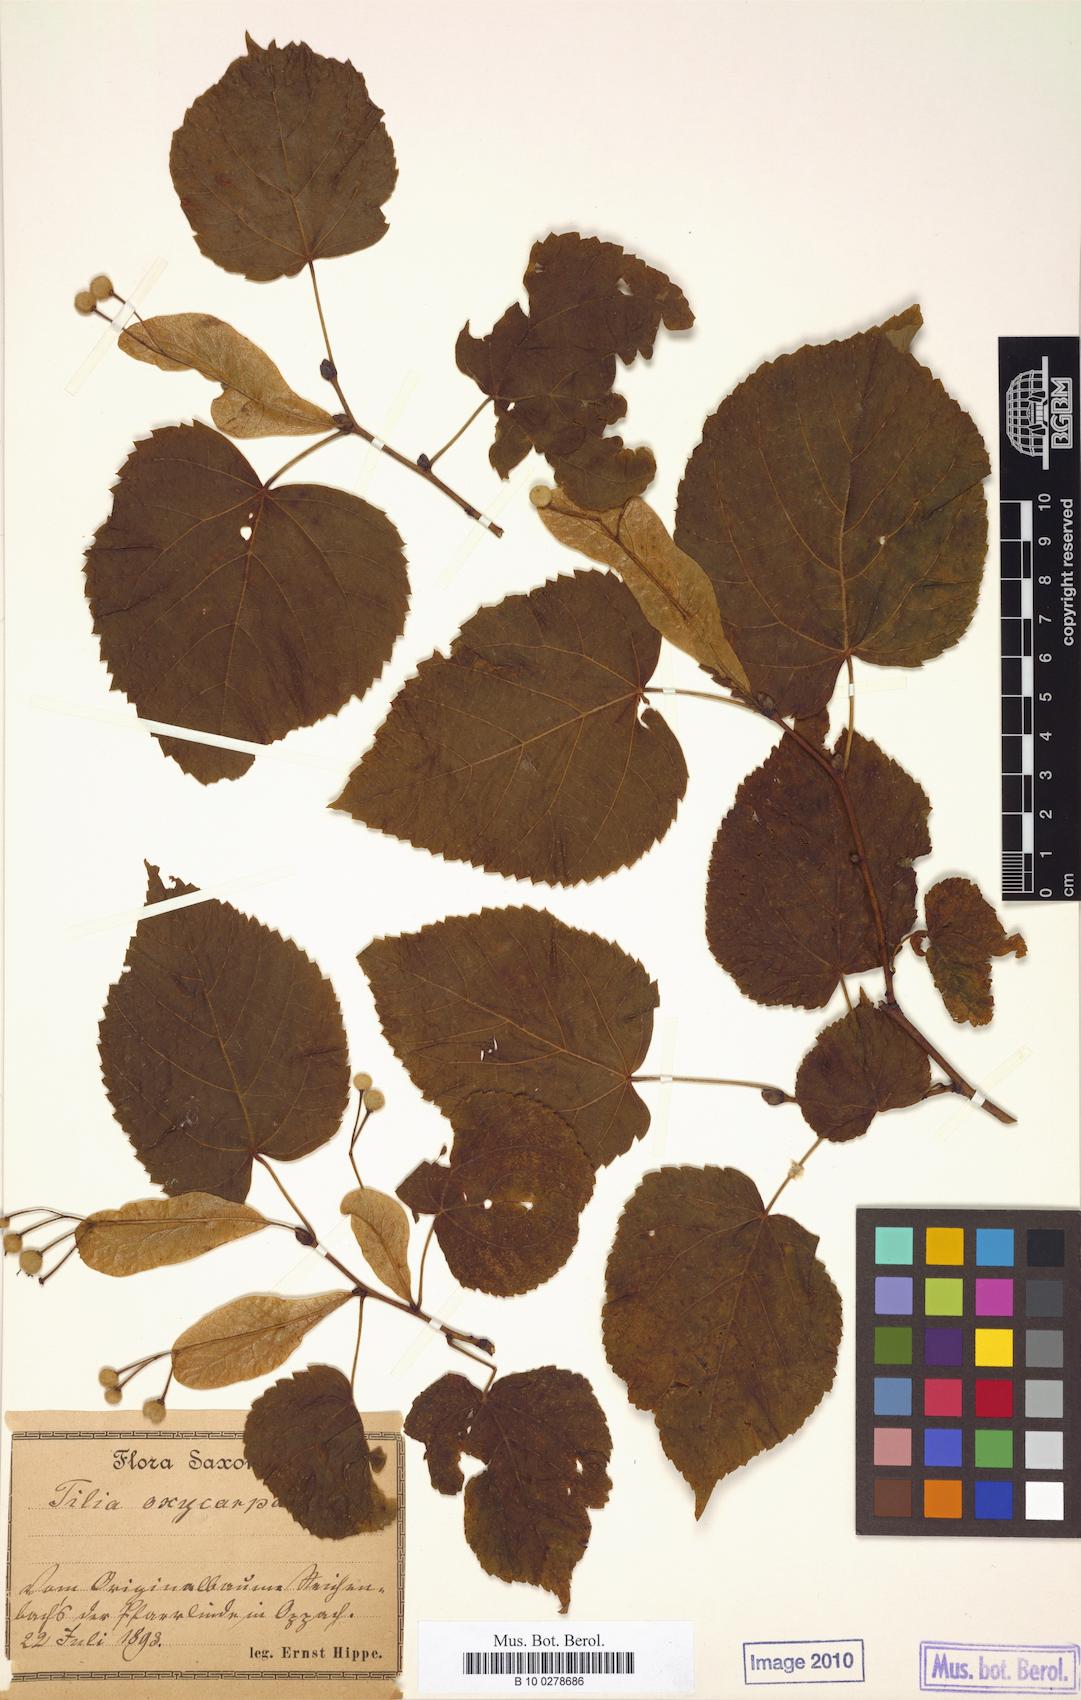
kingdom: Plantae
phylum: Tracheophyta
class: Magnoliopsida
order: Malvales
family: Malvaceae
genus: Tilia
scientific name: Tilia europaea
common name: European linden
